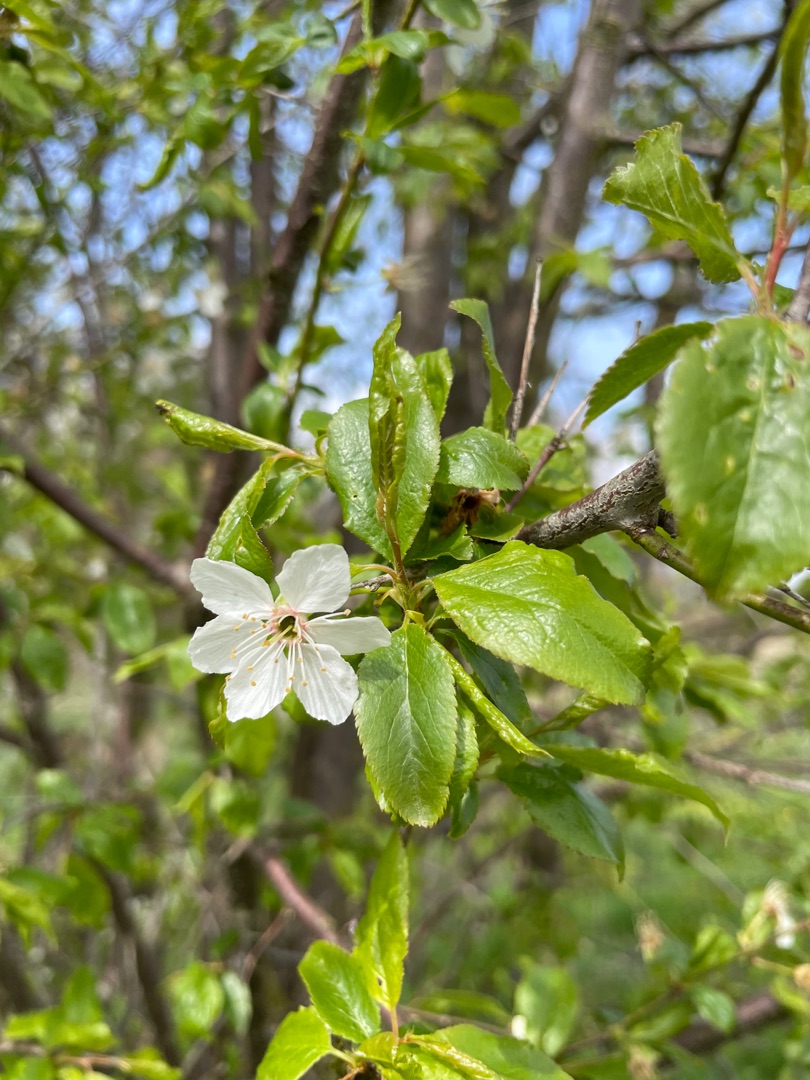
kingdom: Plantae
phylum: Tracheophyta
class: Magnoliopsida
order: Rosales
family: Rosaceae
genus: Prunus
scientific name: Prunus cerasifera
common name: Mirabel
